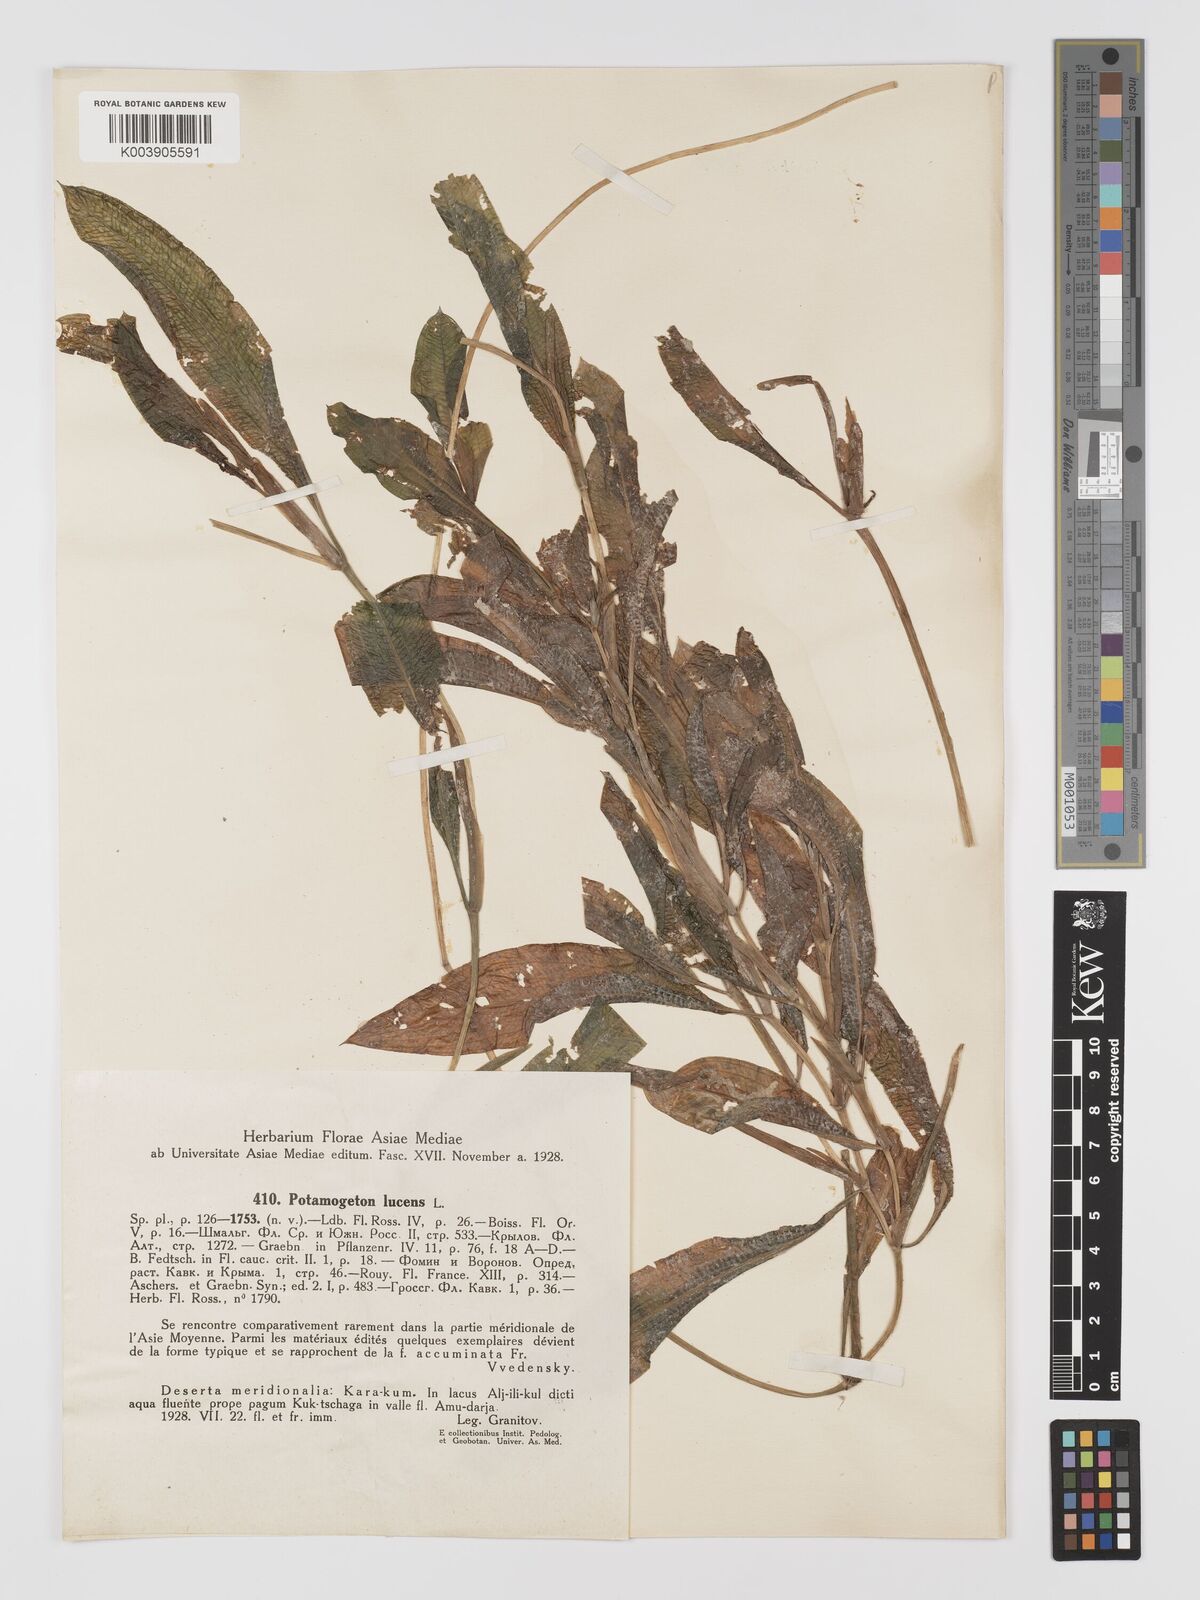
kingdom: Plantae
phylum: Tracheophyta
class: Liliopsida
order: Alismatales
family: Potamogetonaceae
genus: Potamogeton
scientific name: Potamogeton lucens
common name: Shining pondweed
